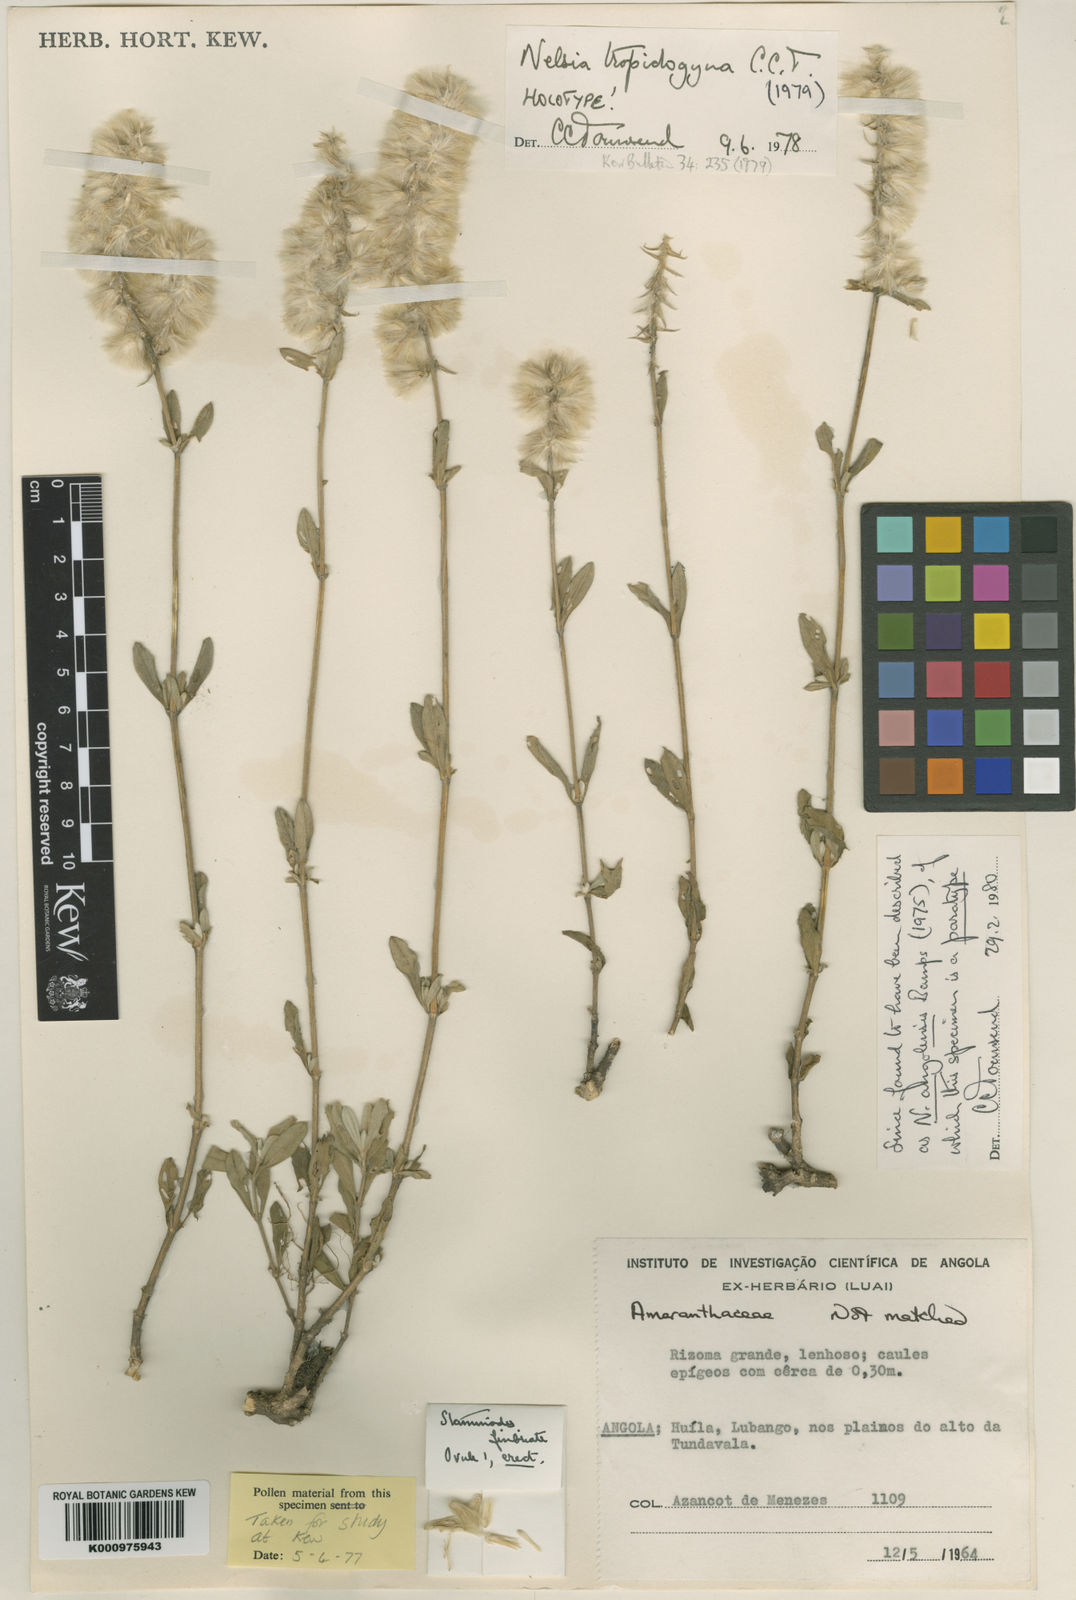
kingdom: Plantae
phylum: Tracheophyta
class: Magnoliopsida
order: Caryophyllales
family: Amaranthaceae
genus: Nelsia
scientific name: Nelsia angolensis
